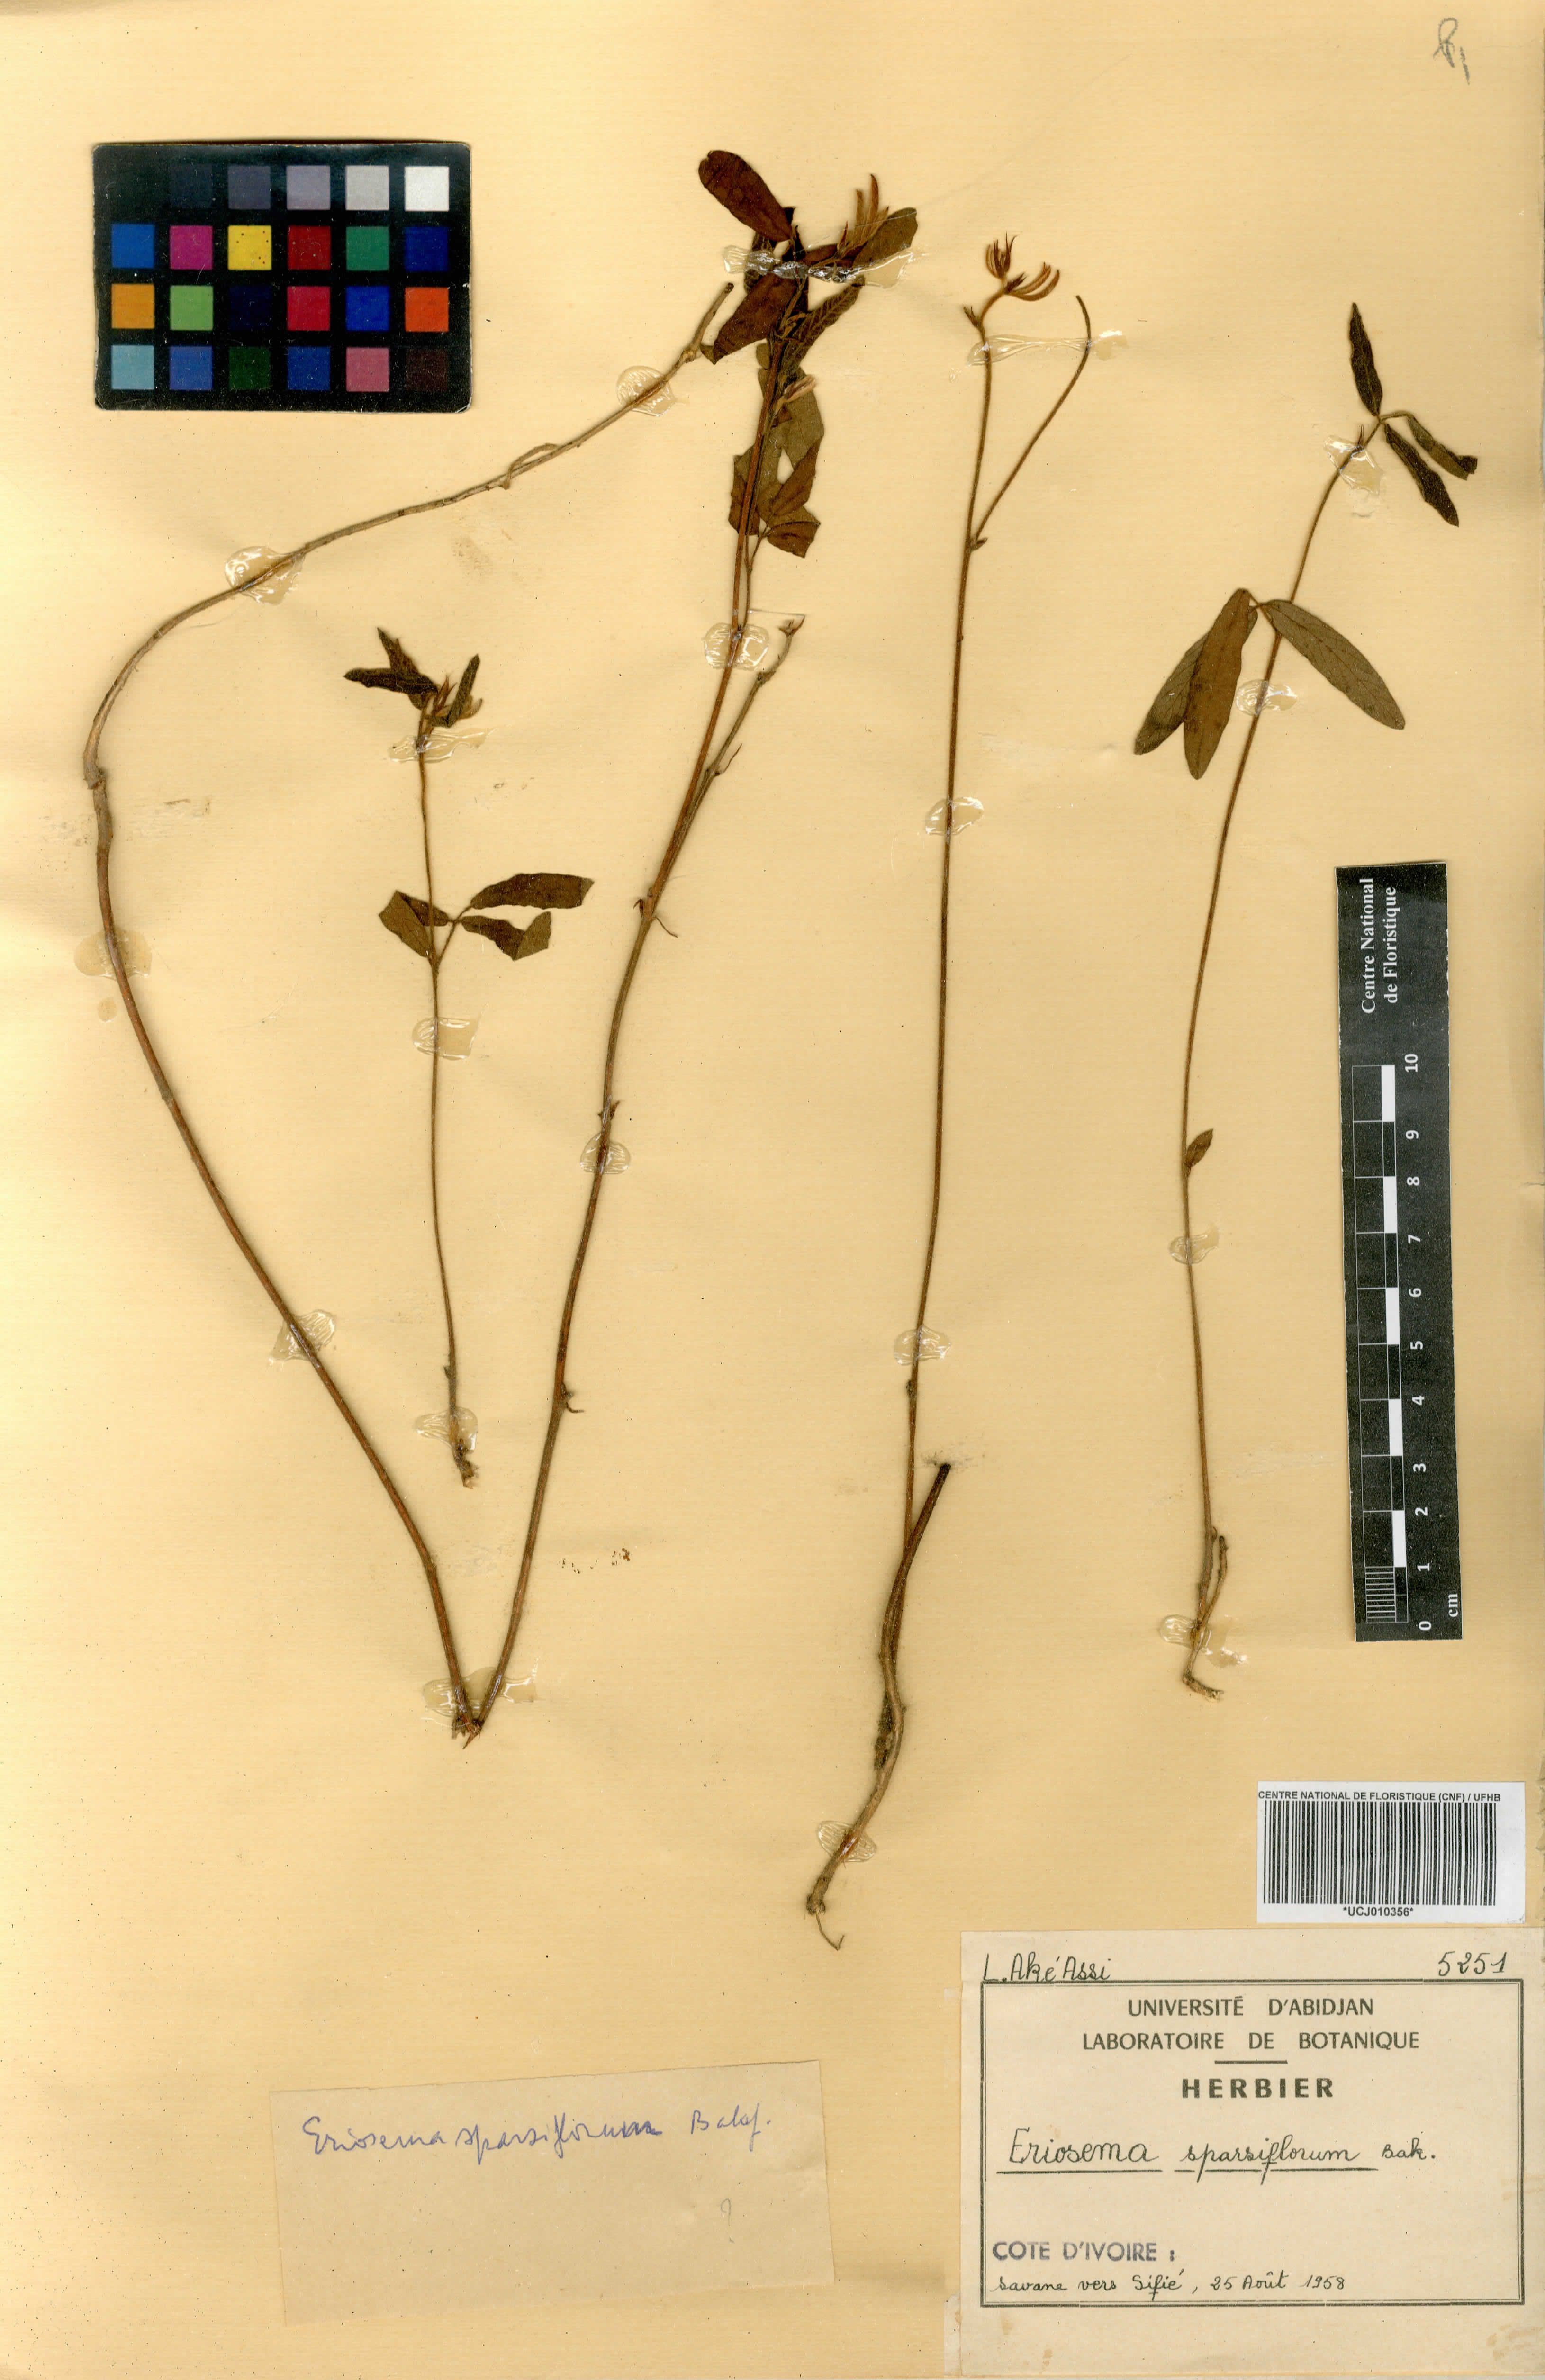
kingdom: Plantae
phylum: Tracheophyta
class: Magnoliopsida
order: Fabales
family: Fabaceae
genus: Eriosema
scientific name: Eriosema sparsiflorum
